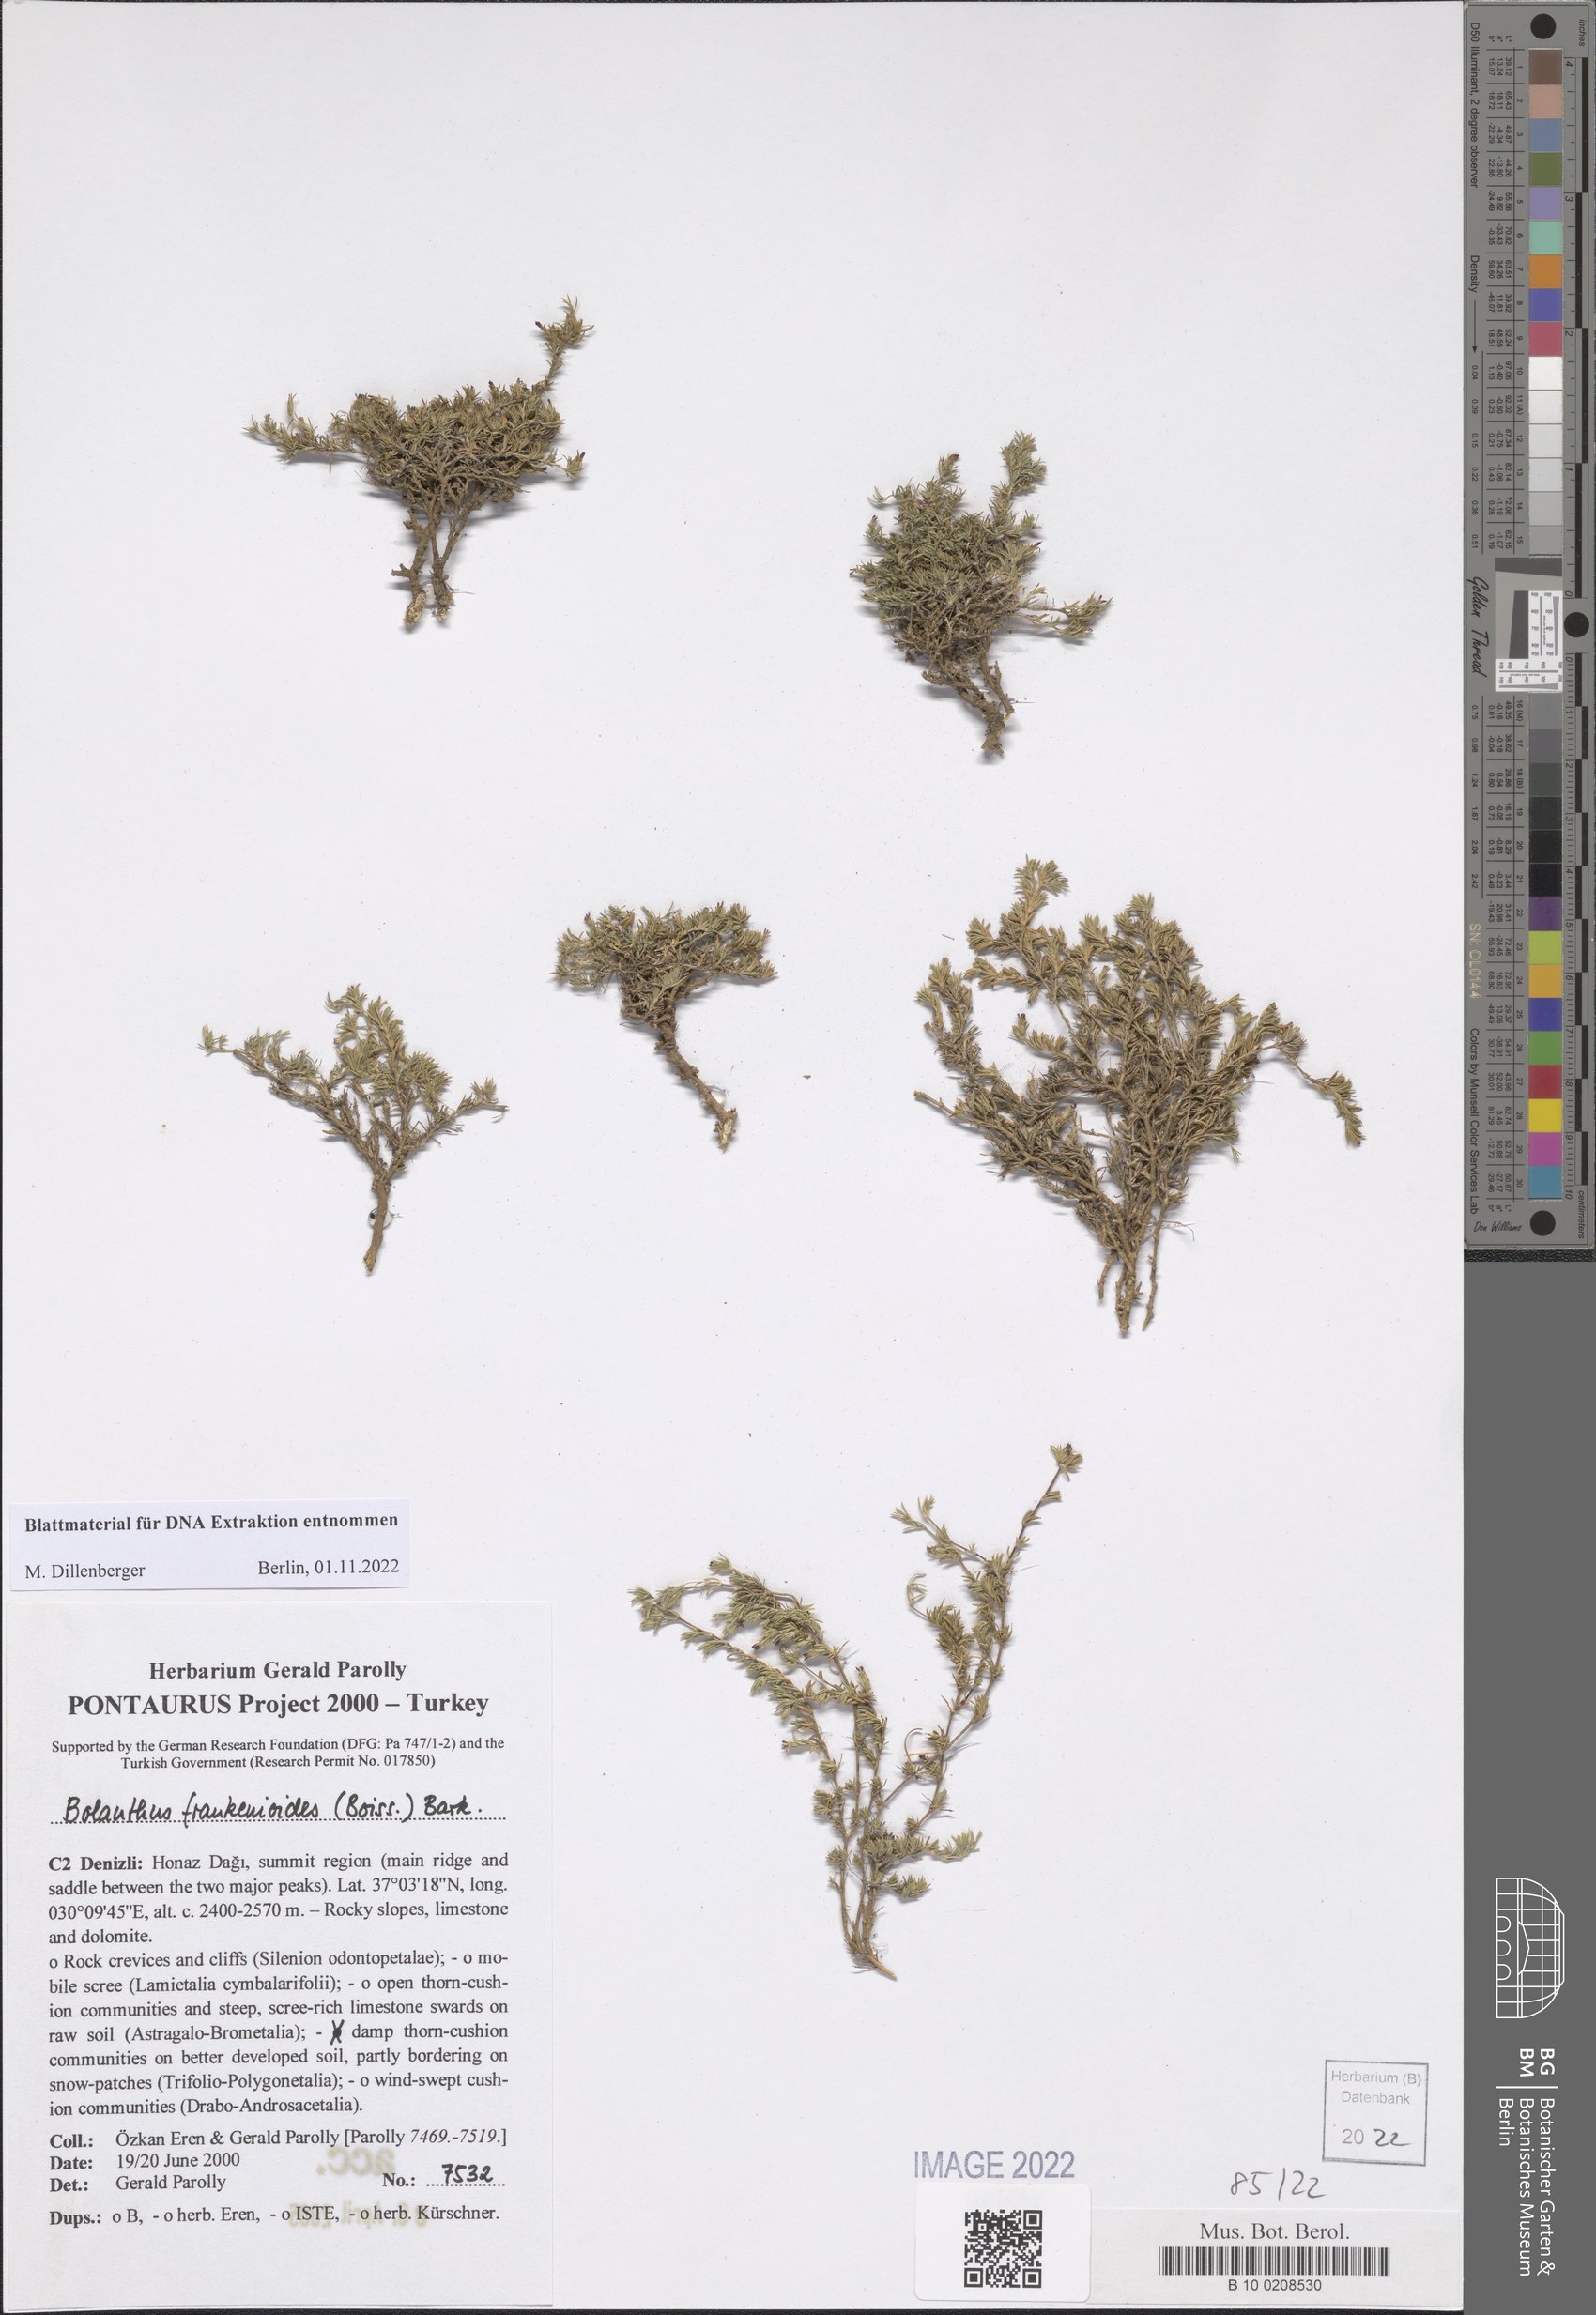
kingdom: Plantae
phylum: Tracheophyta
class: Magnoliopsida
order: Caryophyllales
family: Caryophyllaceae
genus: Bolanthus
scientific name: Bolanthus frankenioides
